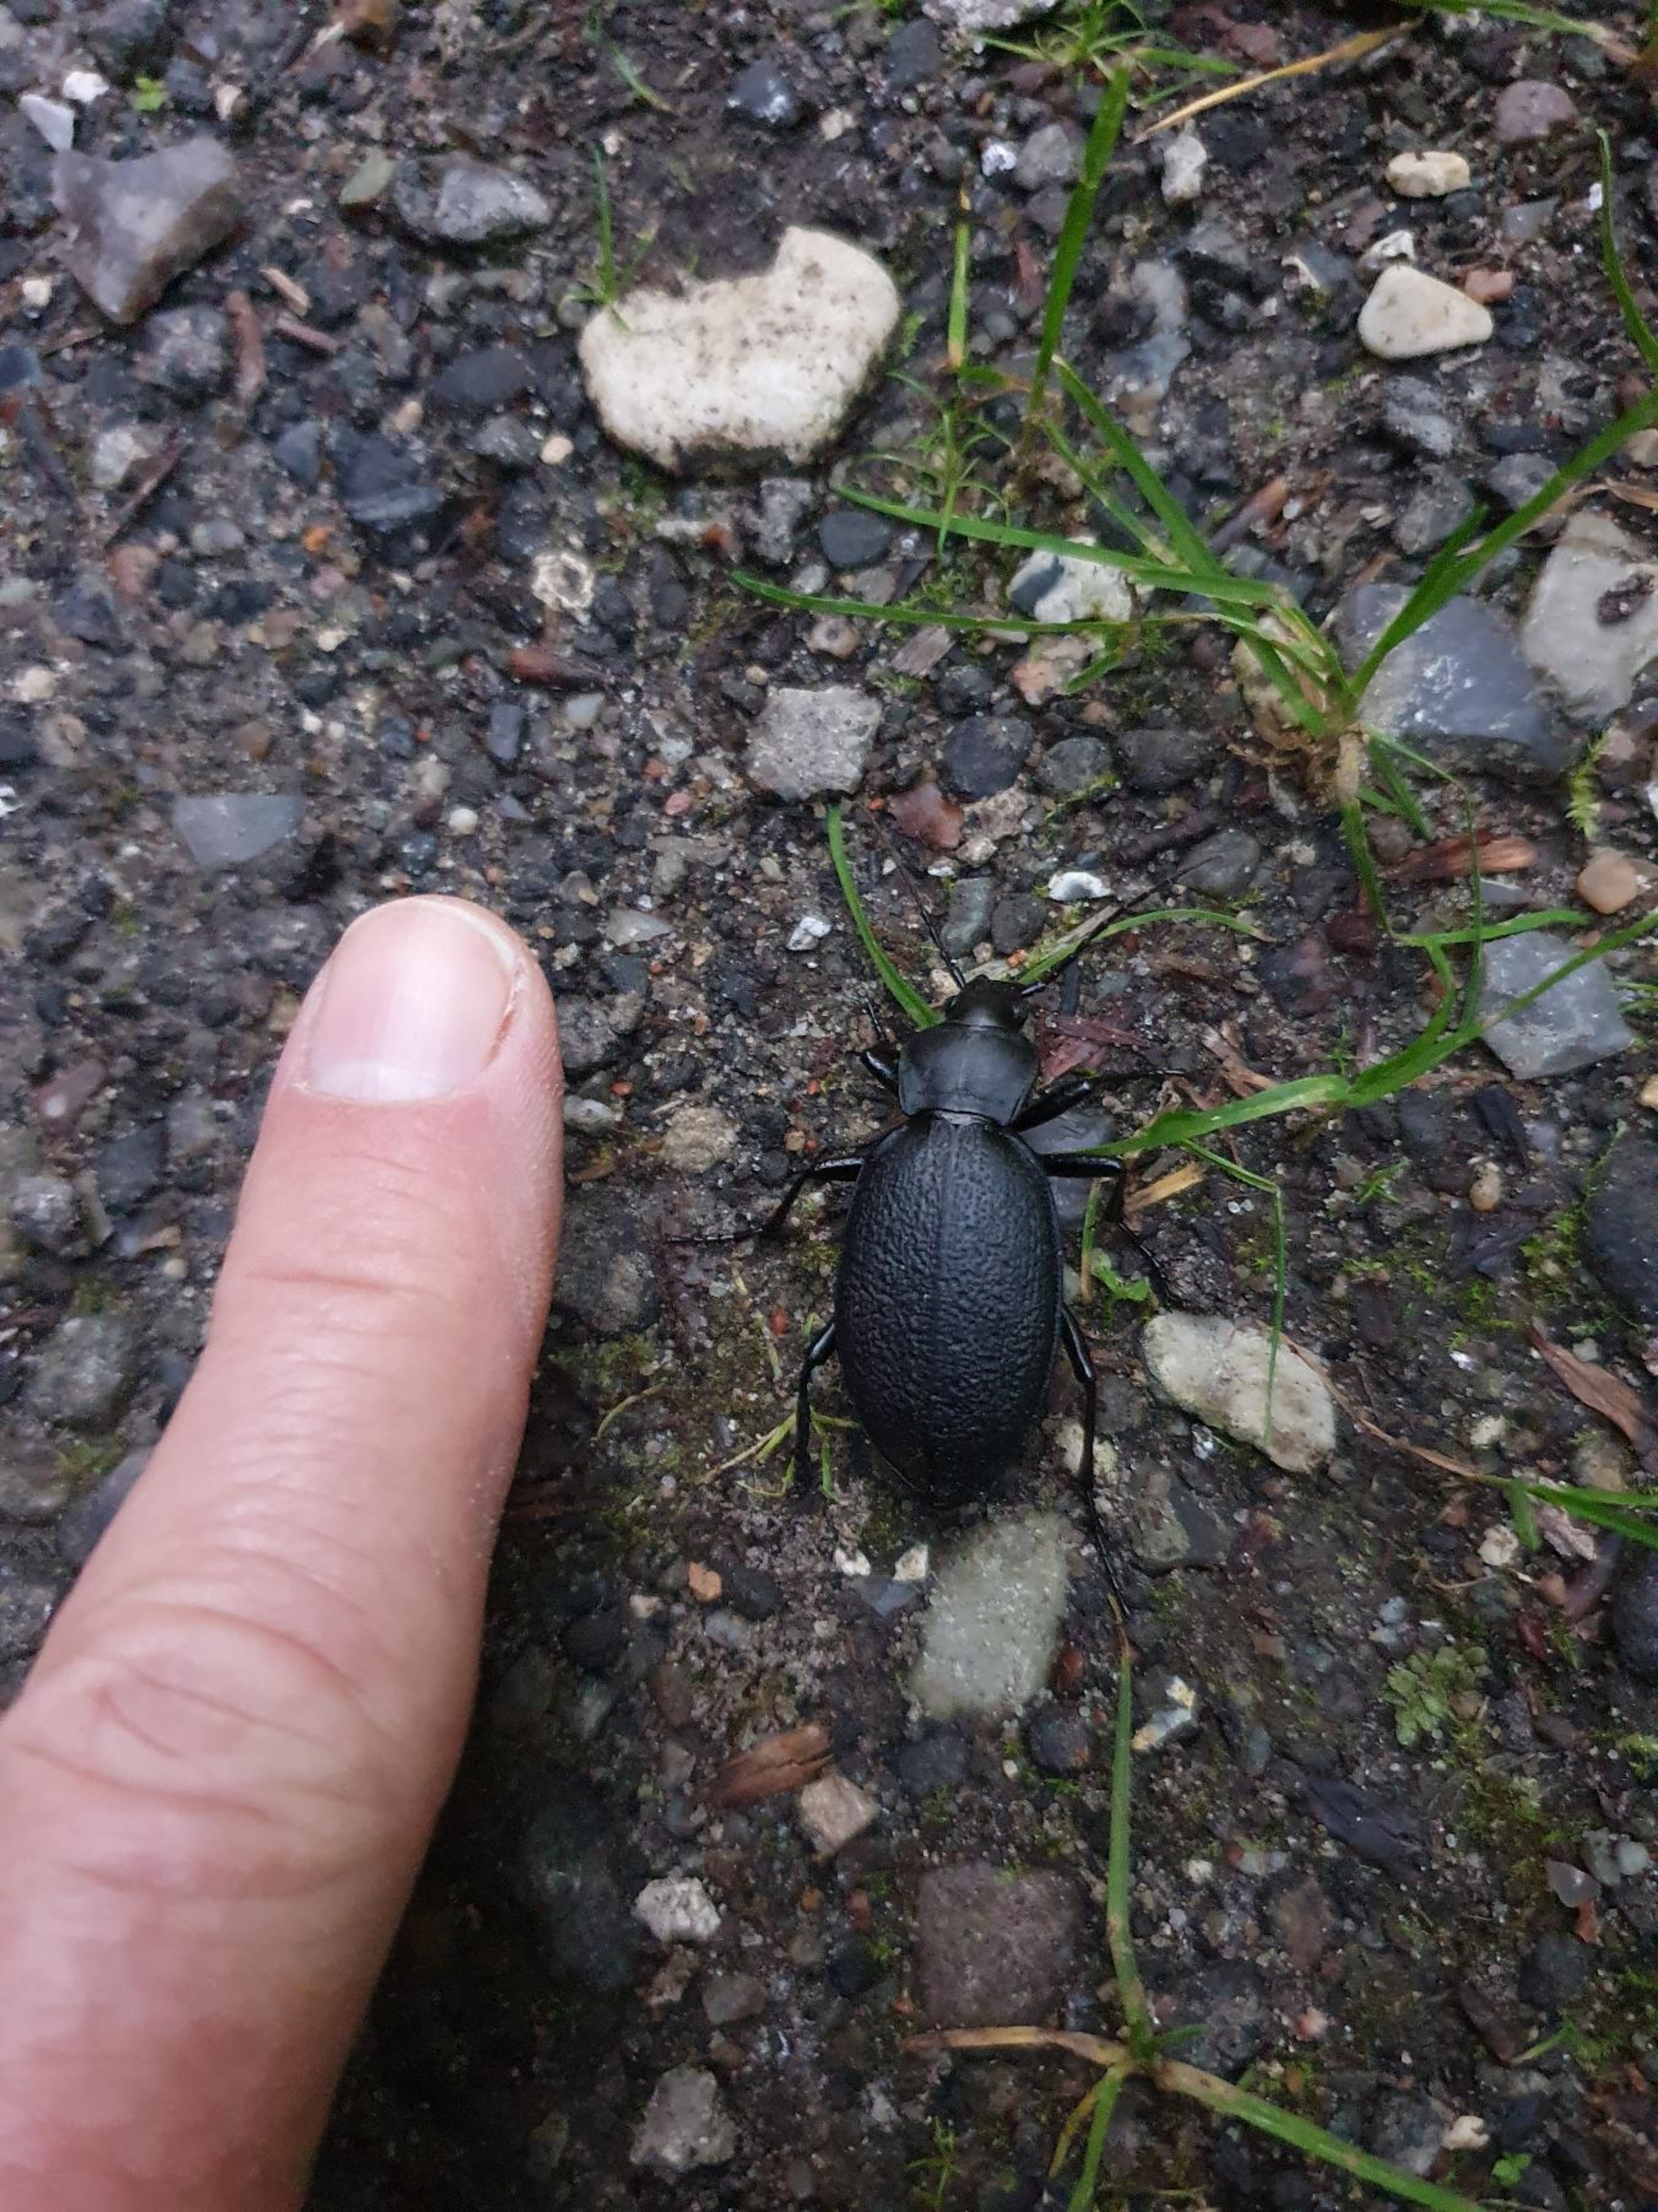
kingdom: Animalia
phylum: Arthropoda
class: Insecta
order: Coleoptera
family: Carabidae
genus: Carabus
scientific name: Carabus coriaceus
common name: Læderløber
